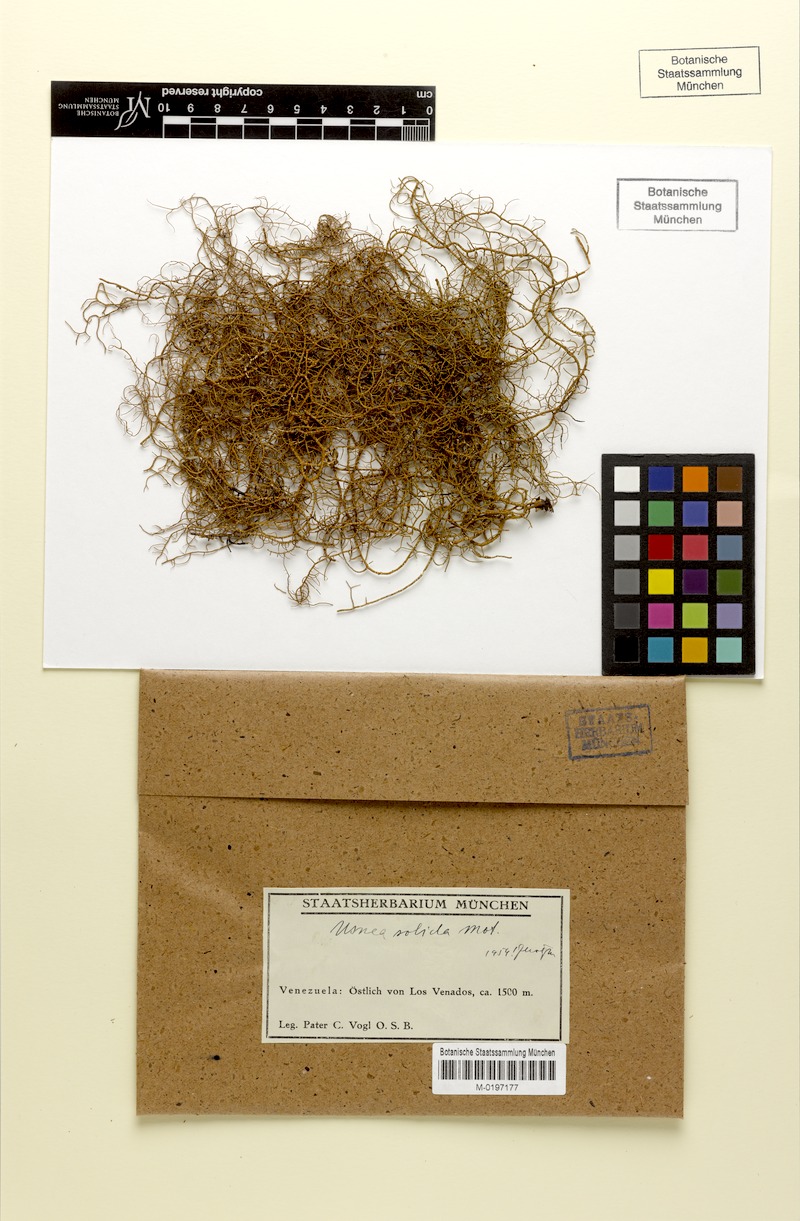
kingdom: Fungi
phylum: Ascomycota
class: Lecanoromycetes
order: Lecanorales
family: Parmeliaceae
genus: Usnea
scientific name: Usnea
